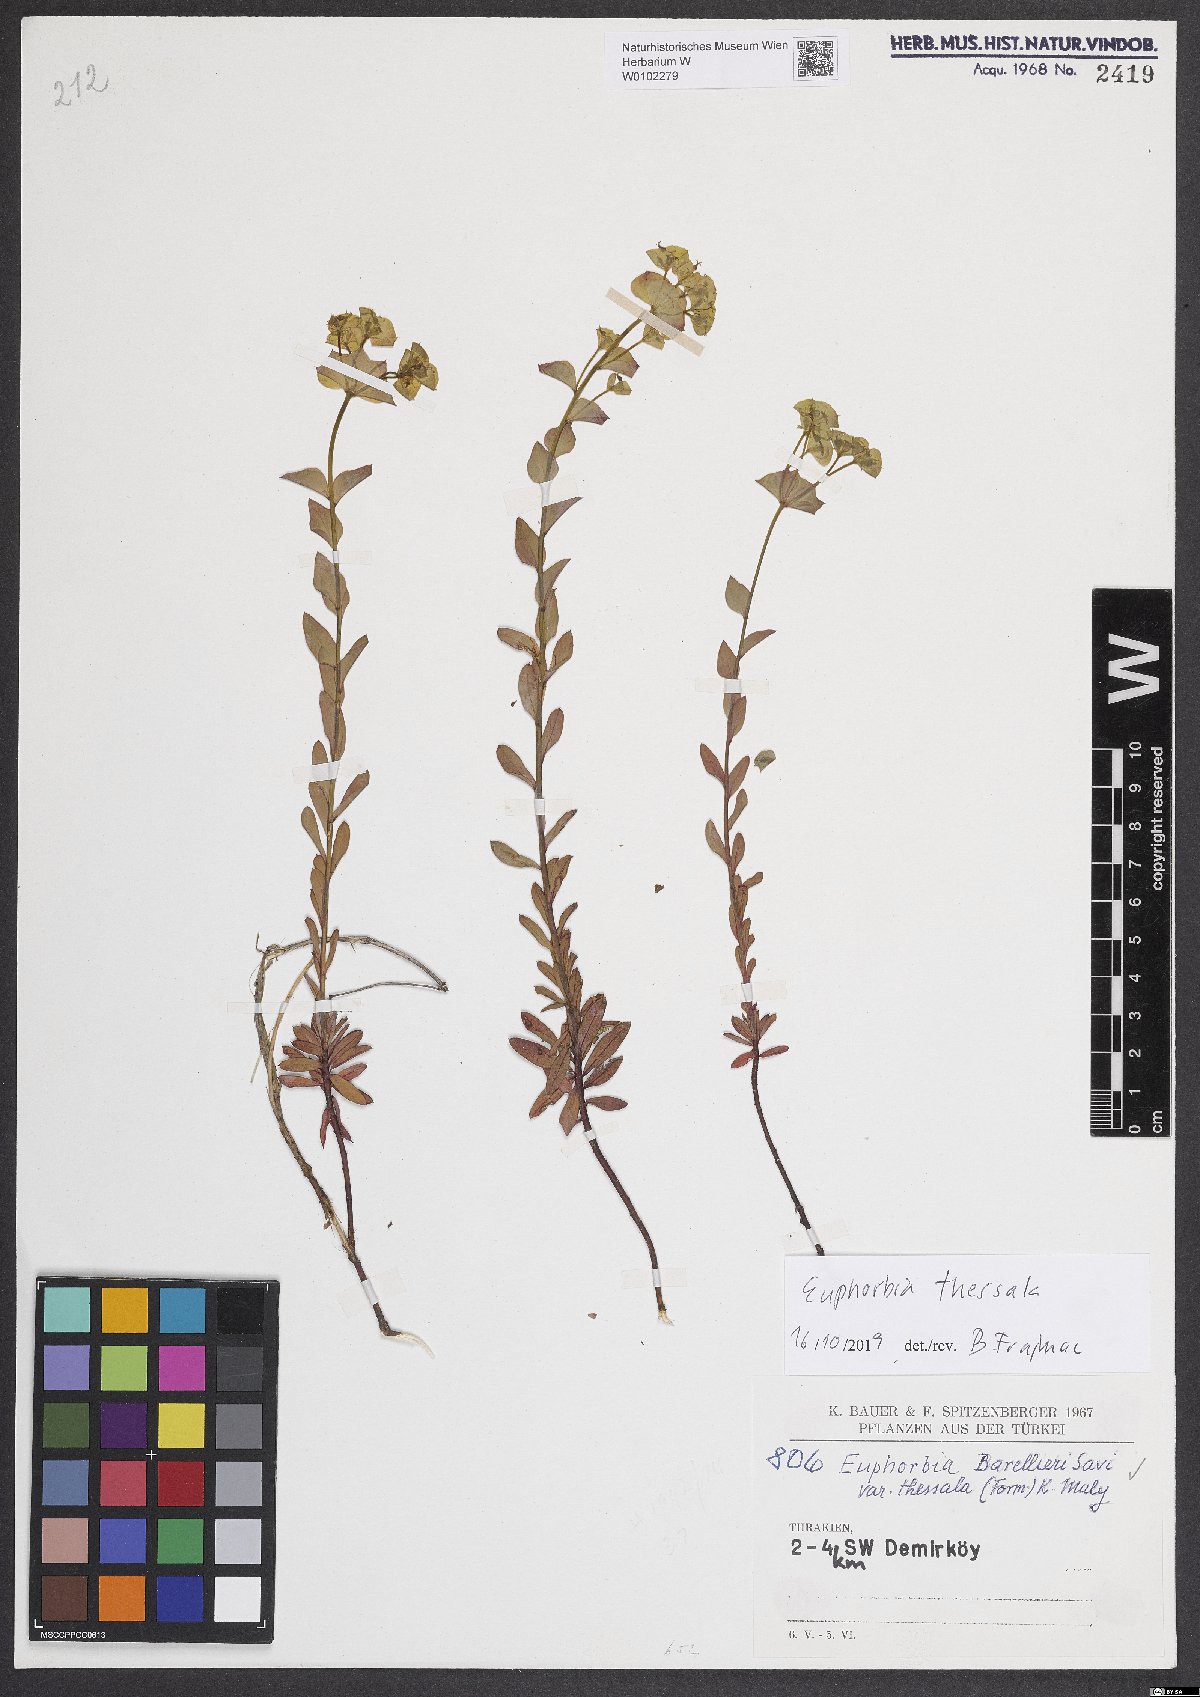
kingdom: Plantae
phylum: Tracheophyta
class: Magnoliopsida
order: Malpighiales
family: Euphorbiaceae
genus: Euphorbia
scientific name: Euphorbia barrelieri
